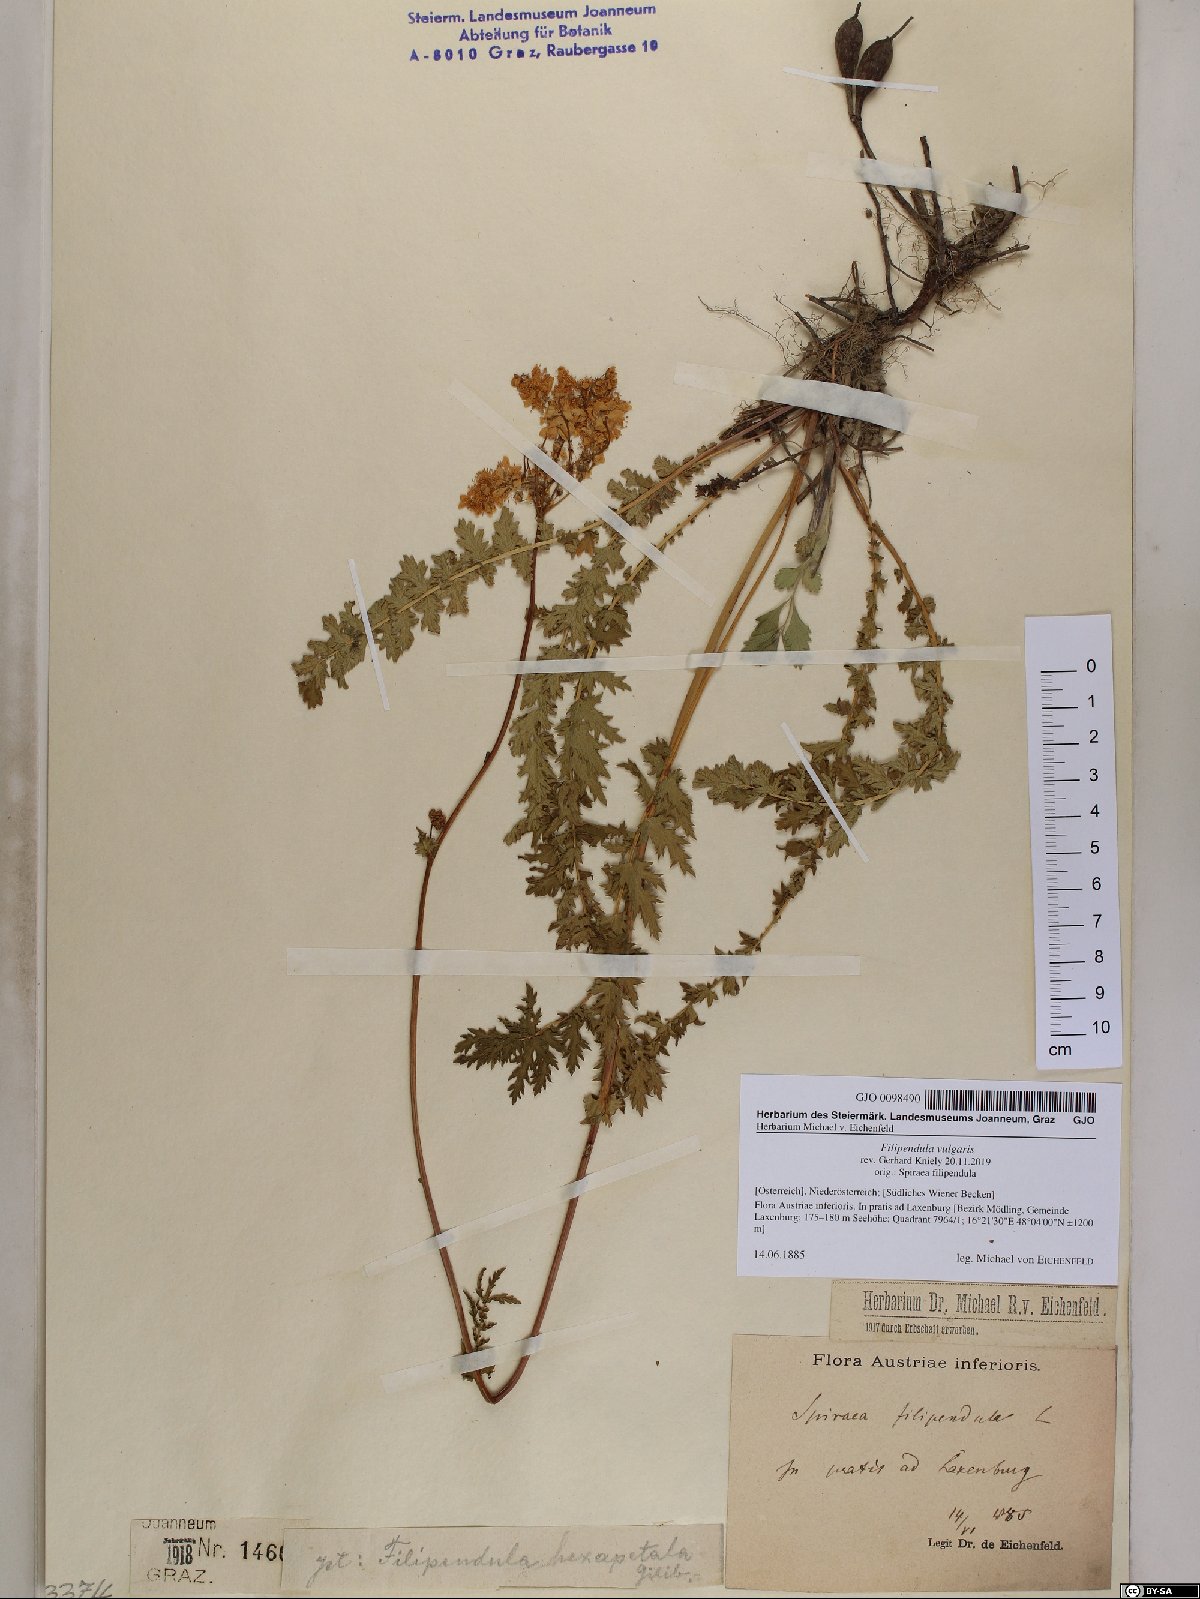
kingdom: Plantae
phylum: Tracheophyta
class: Magnoliopsida
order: Rosales
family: Rosaceae
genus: Filipendula
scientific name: Filipendula vulgaris
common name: Dropwort
